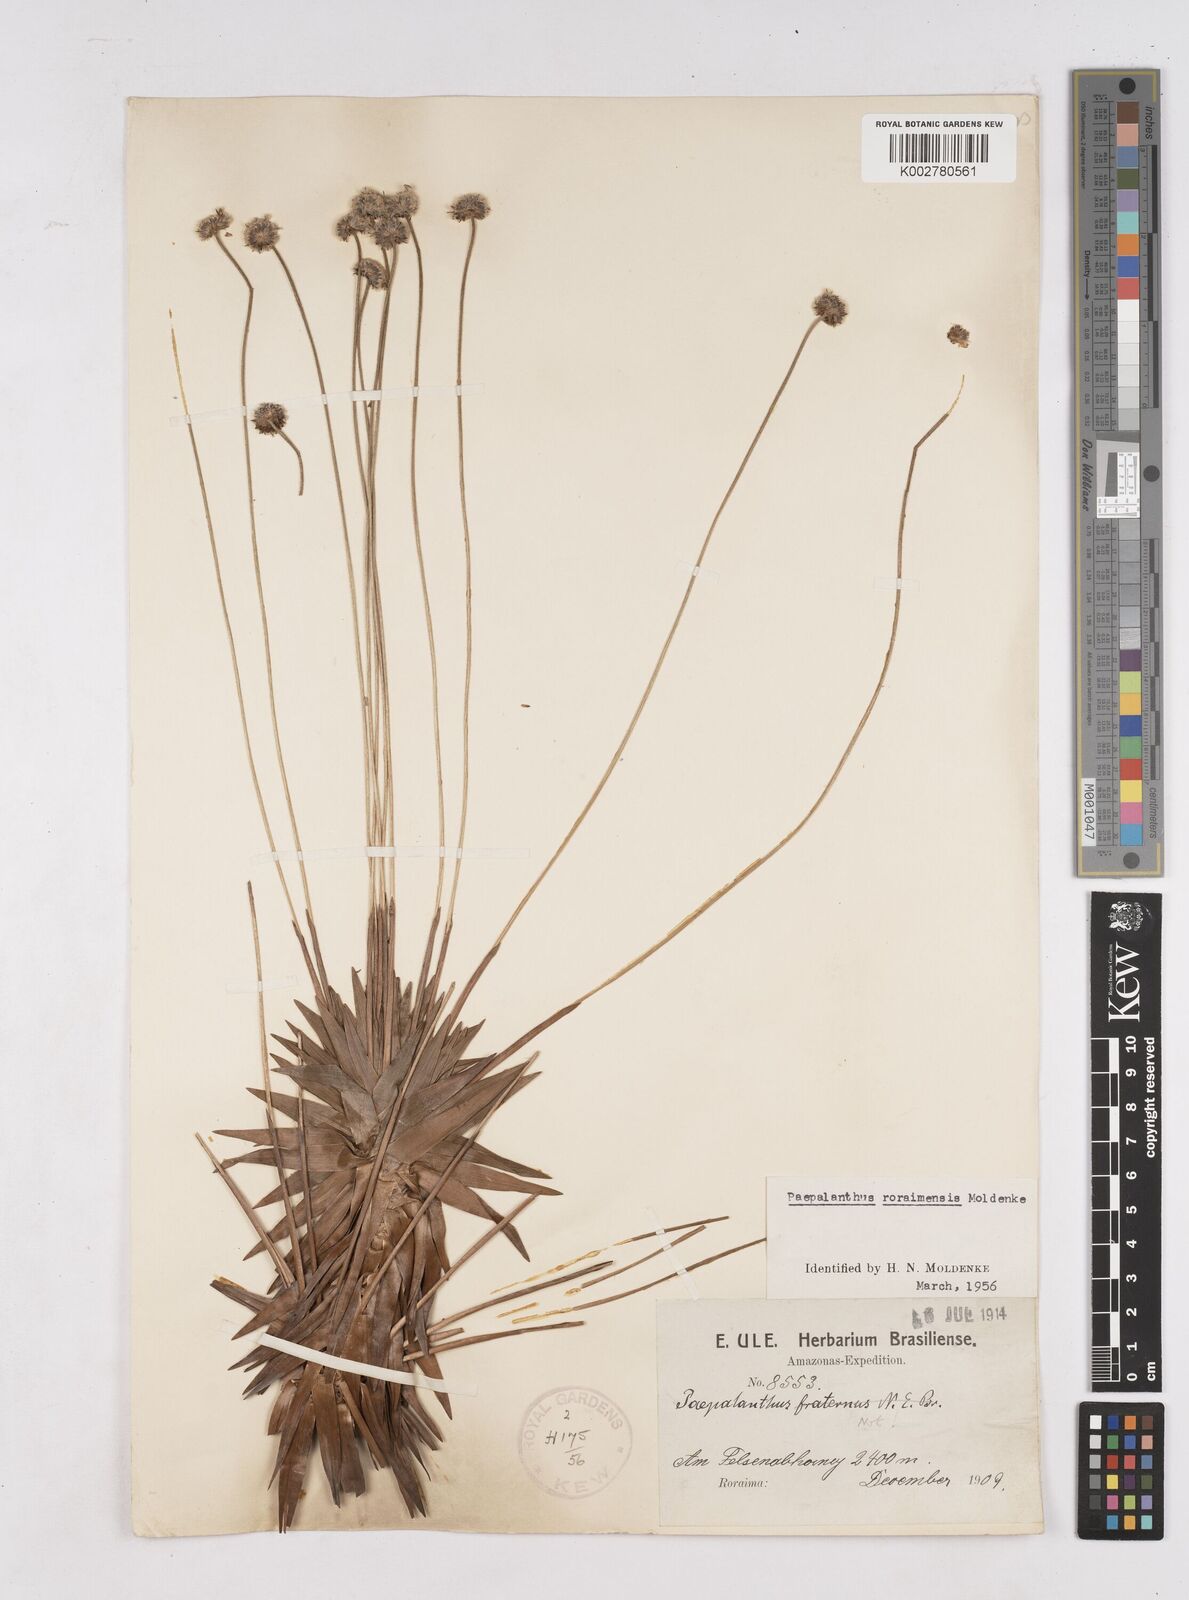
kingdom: Plantae
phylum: Tracheophyta
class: Liliopsida
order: Poales
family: Eriocaulaceae
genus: Paepalanthus
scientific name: Paepalanthus roraimensis
